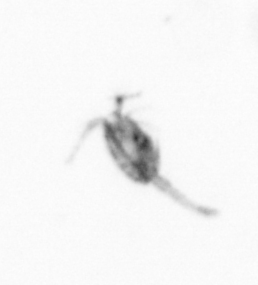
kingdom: Animalia
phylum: Arthropoda
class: Copepoda
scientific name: Copepoda
